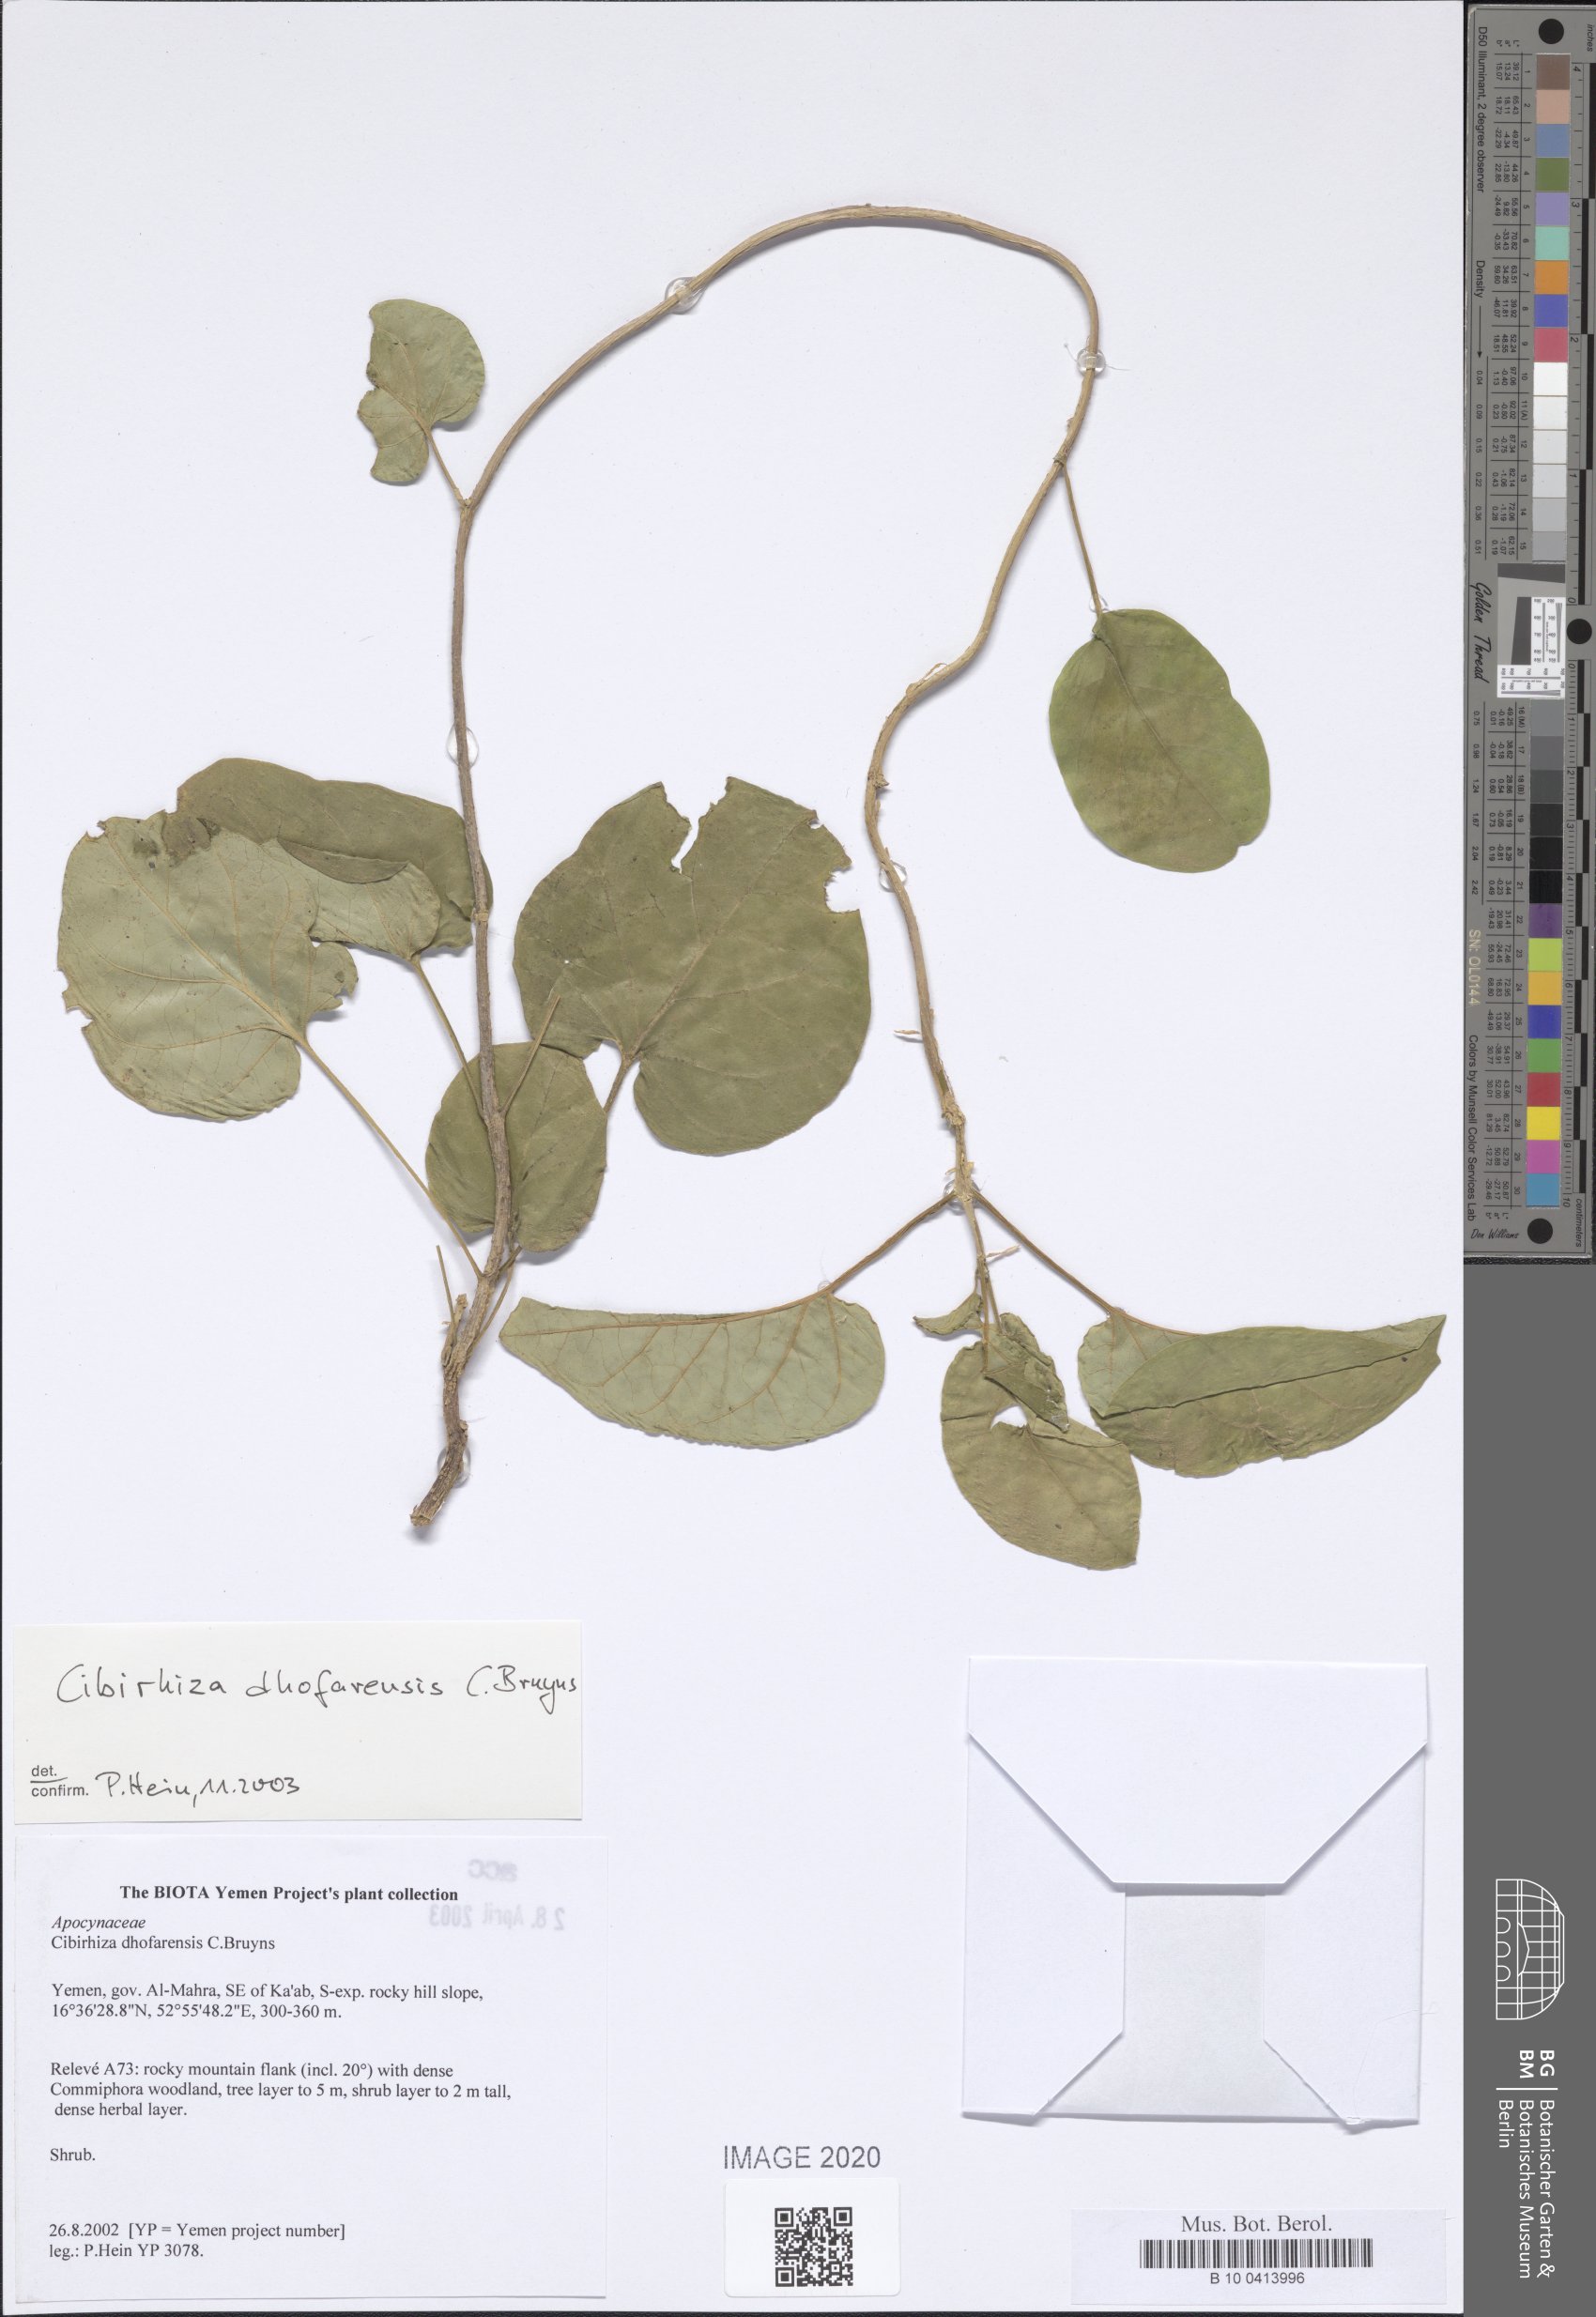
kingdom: Plantae
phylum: Tracheophyta
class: Magnoliopsida
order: Gentianales
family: Apocynaceae
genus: Cibirhiza
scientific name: Cibirhiza dhofarensis
